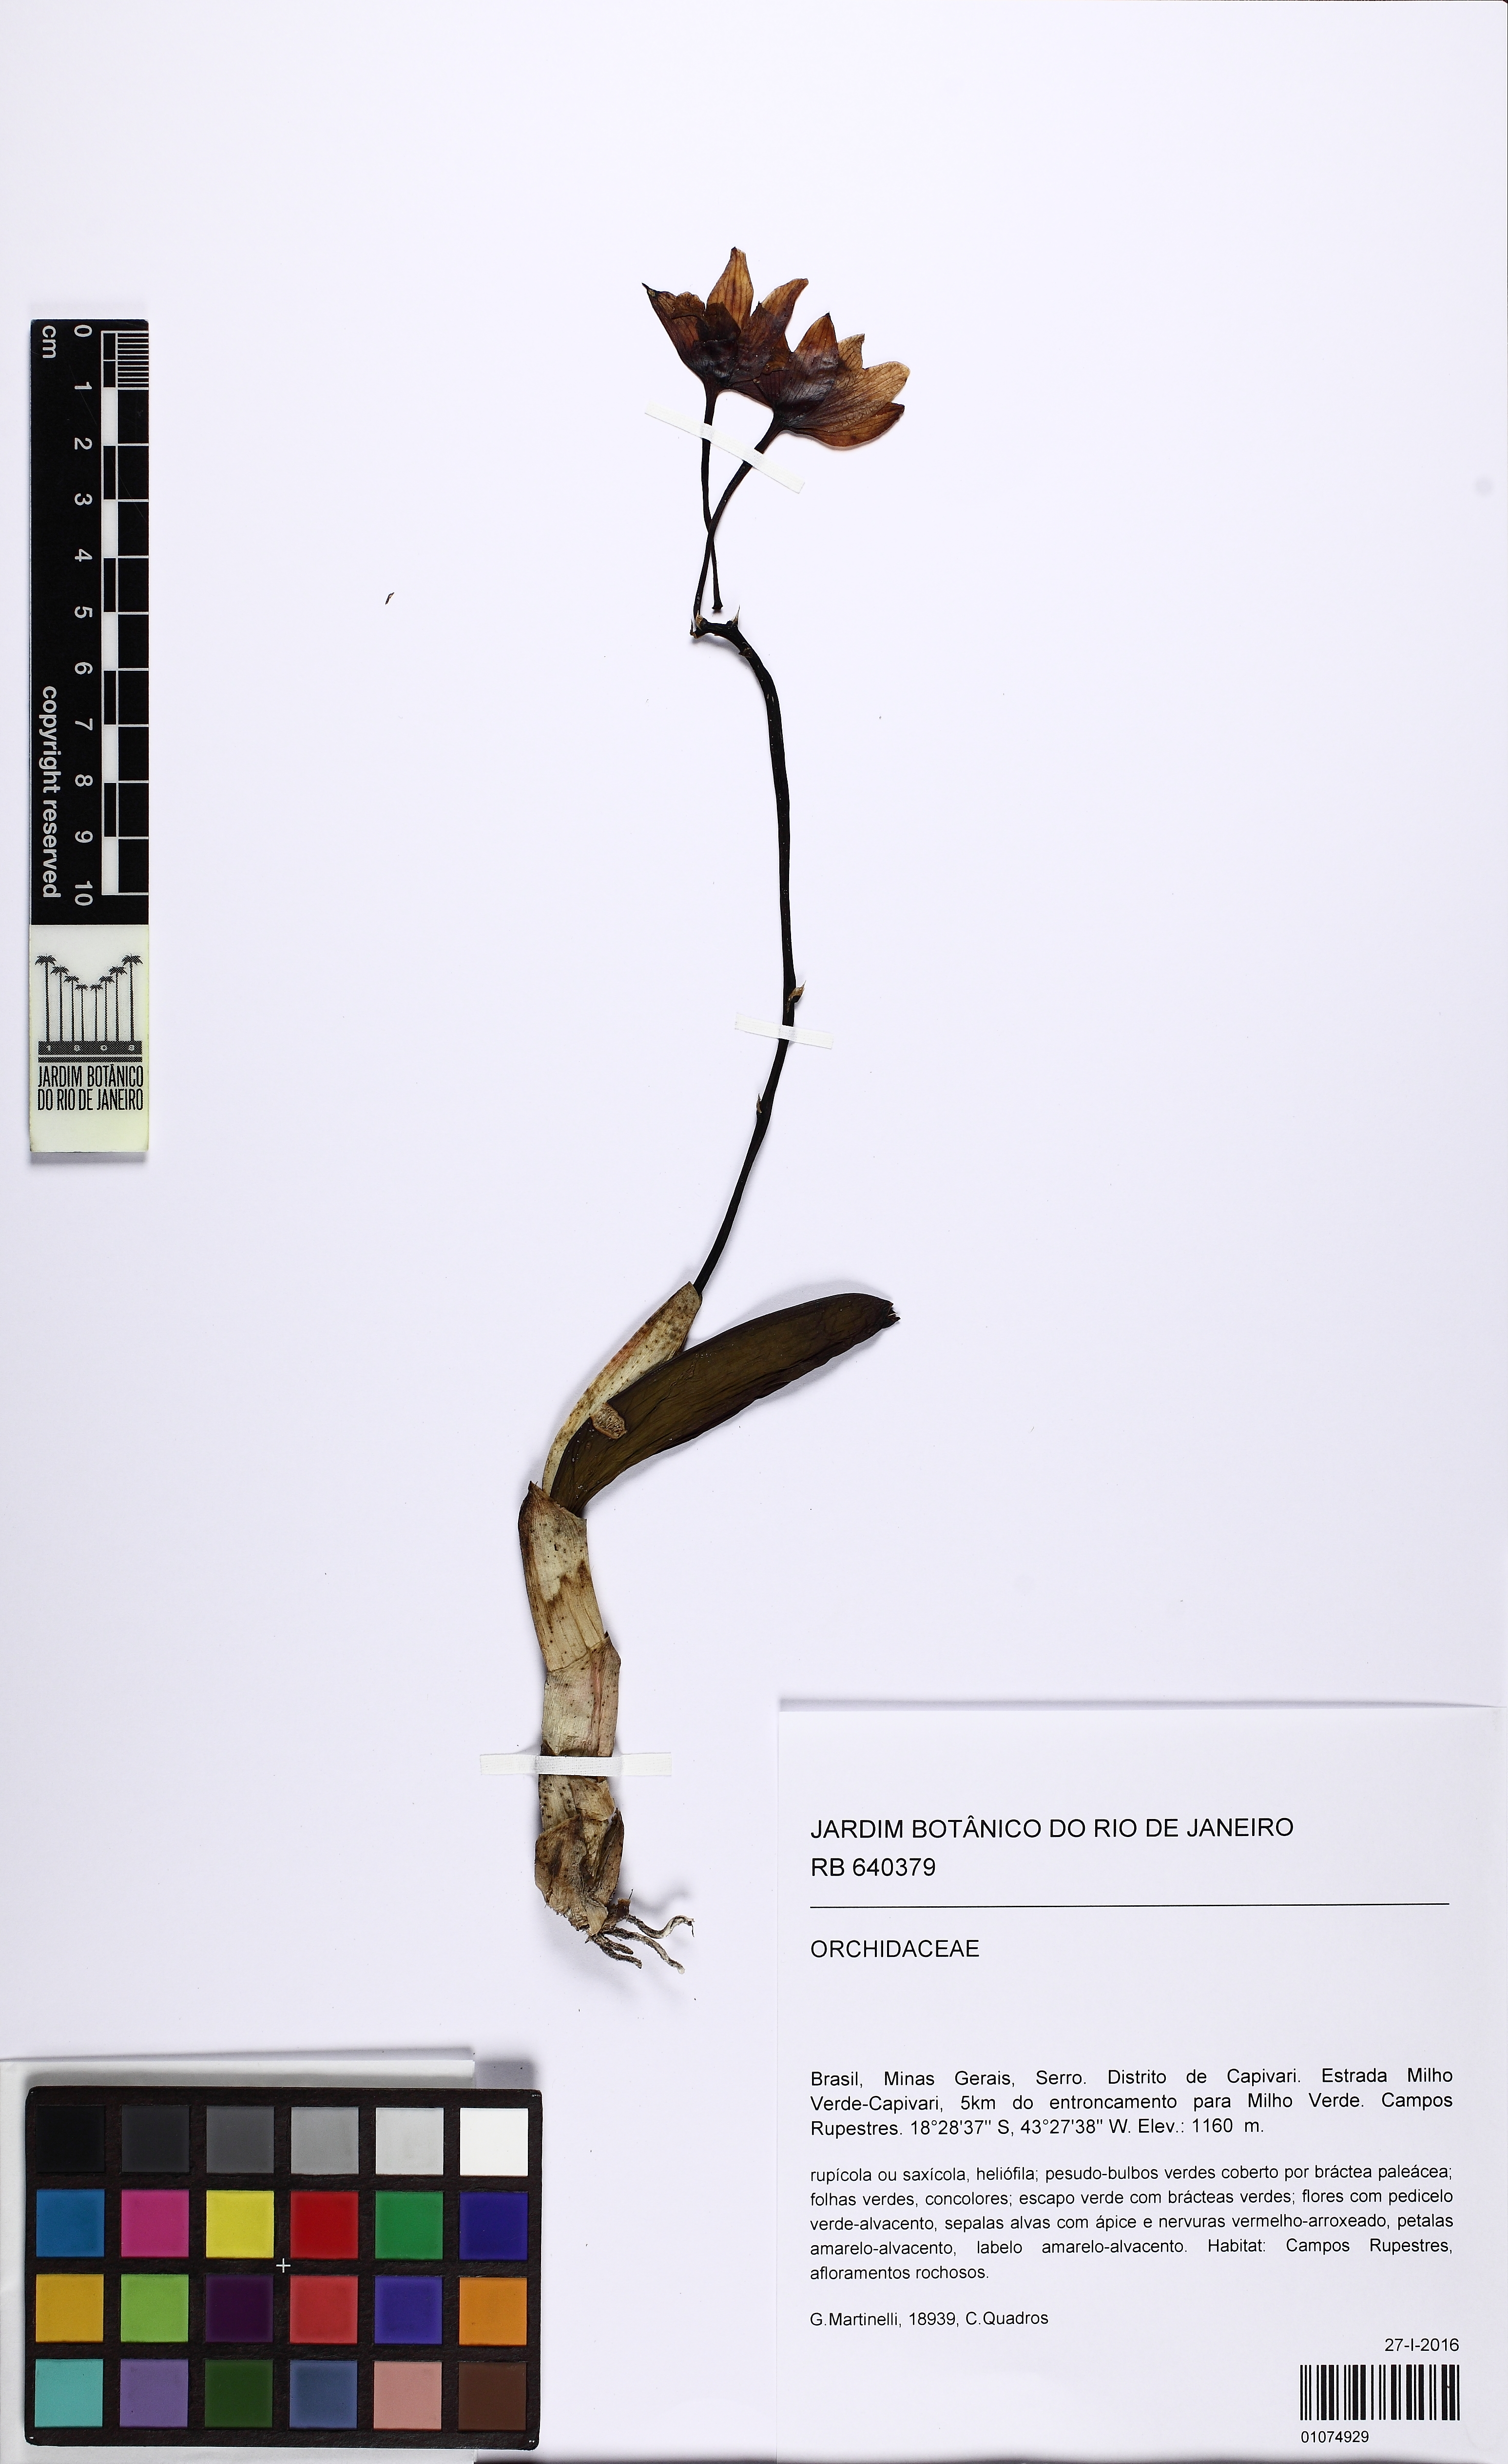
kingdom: Plantae
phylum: Tracheophyta
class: Liliopsida
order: Asparagales
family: Orchidaceae
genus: Cattleya
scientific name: Cattleya
